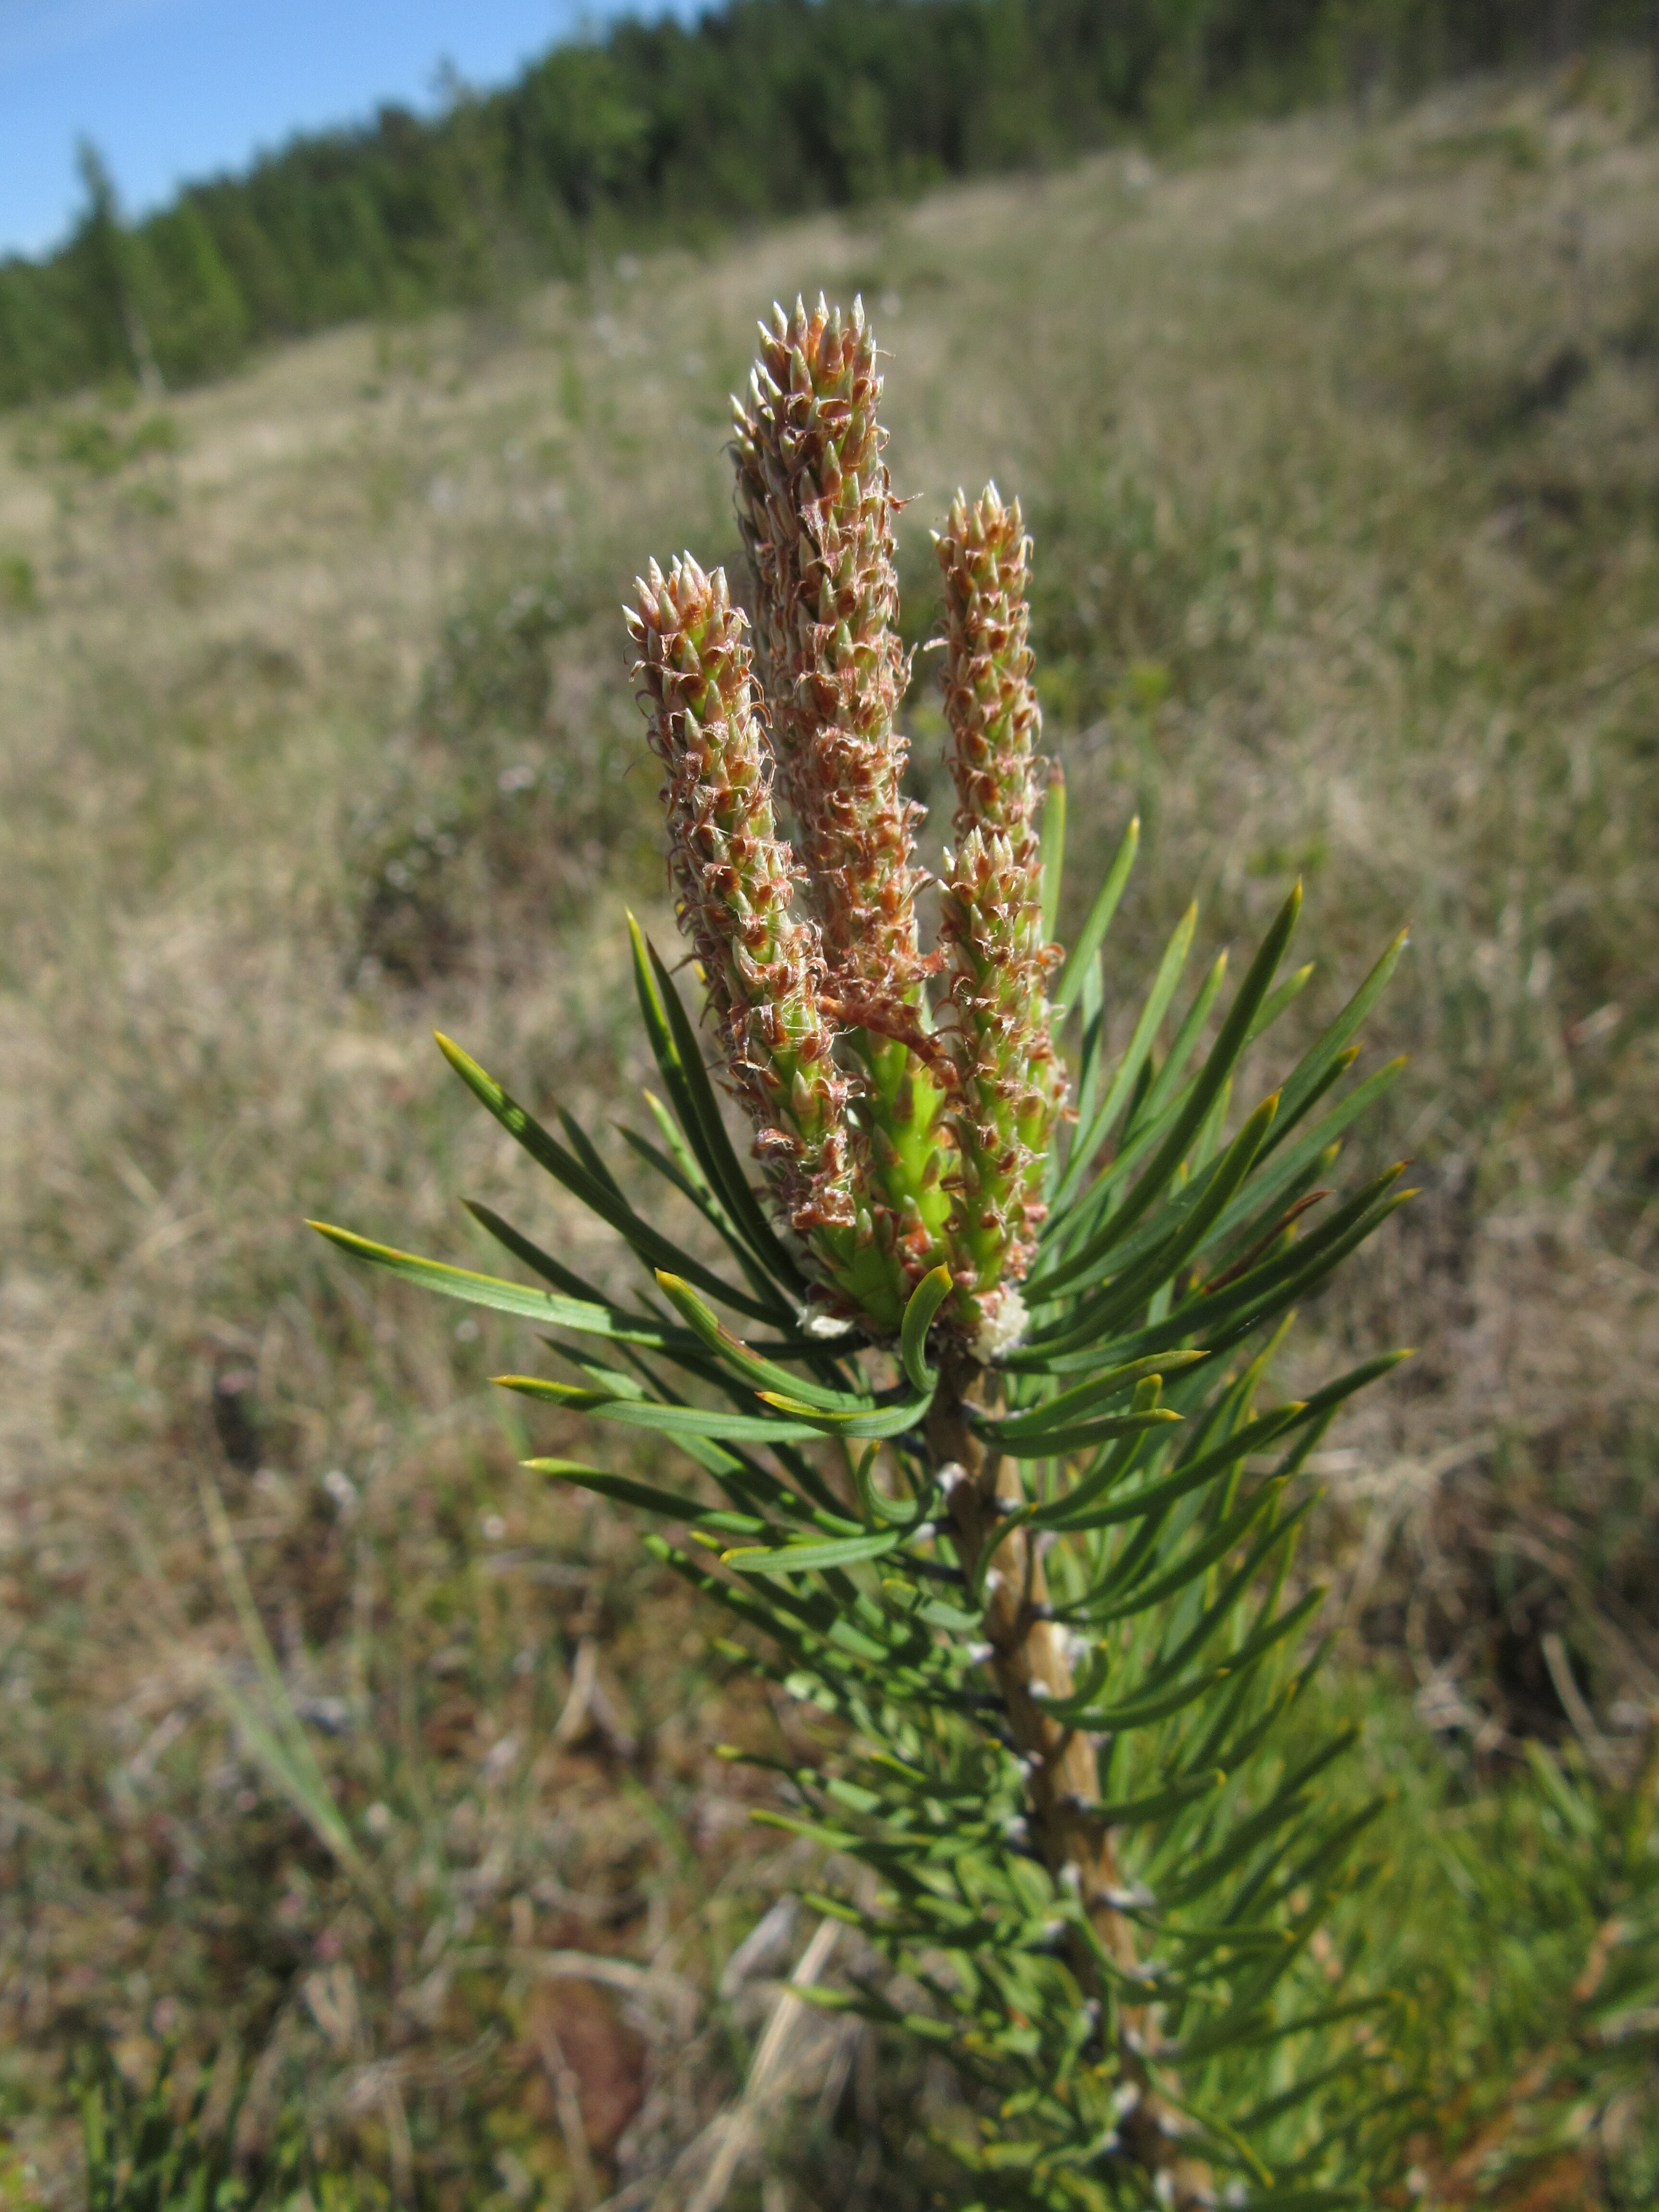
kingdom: Plantae
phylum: Tracheophyta
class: Pinopsida
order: Pinales
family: Pinaceae
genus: Pinus
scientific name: Pinus sylvestris
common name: Scots pine
